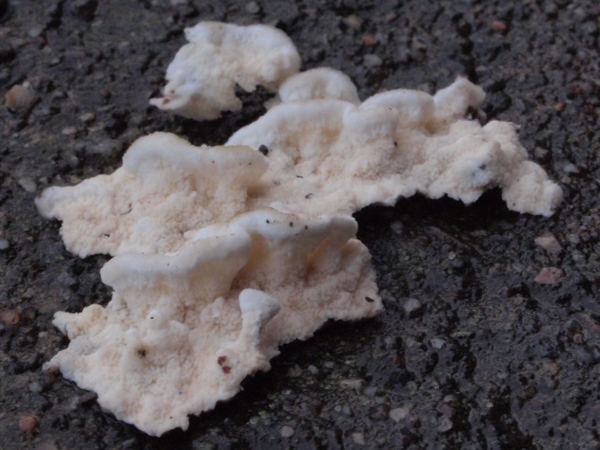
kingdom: Fungi
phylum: Basidiomycota
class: Agaricomycetes
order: Polyporales
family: Irpicaceae
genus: Byssomerulius
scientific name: Byssomerulius corium
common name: læder-åresvamp
